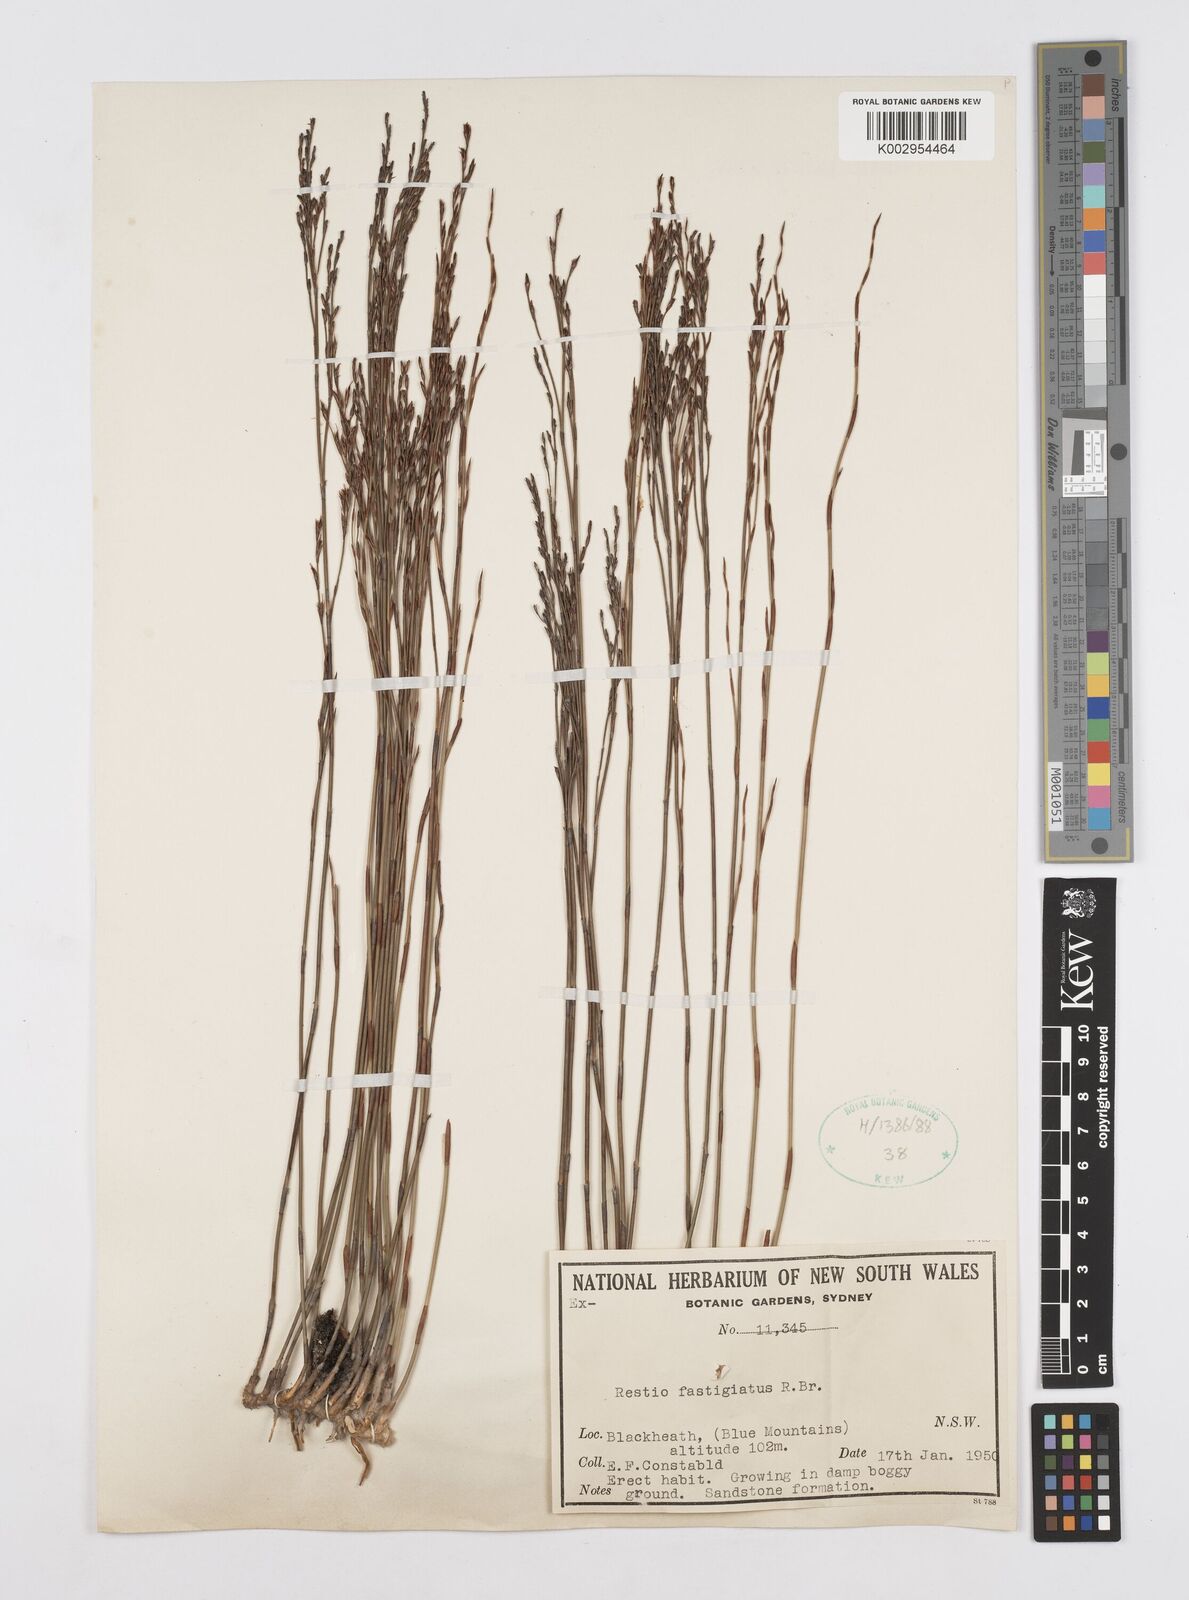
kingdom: Plantae
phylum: Tracheophyta
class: Liliopsida
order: Poales
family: Restionaceae
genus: Chordifex
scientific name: Chordifex fastigiatus
